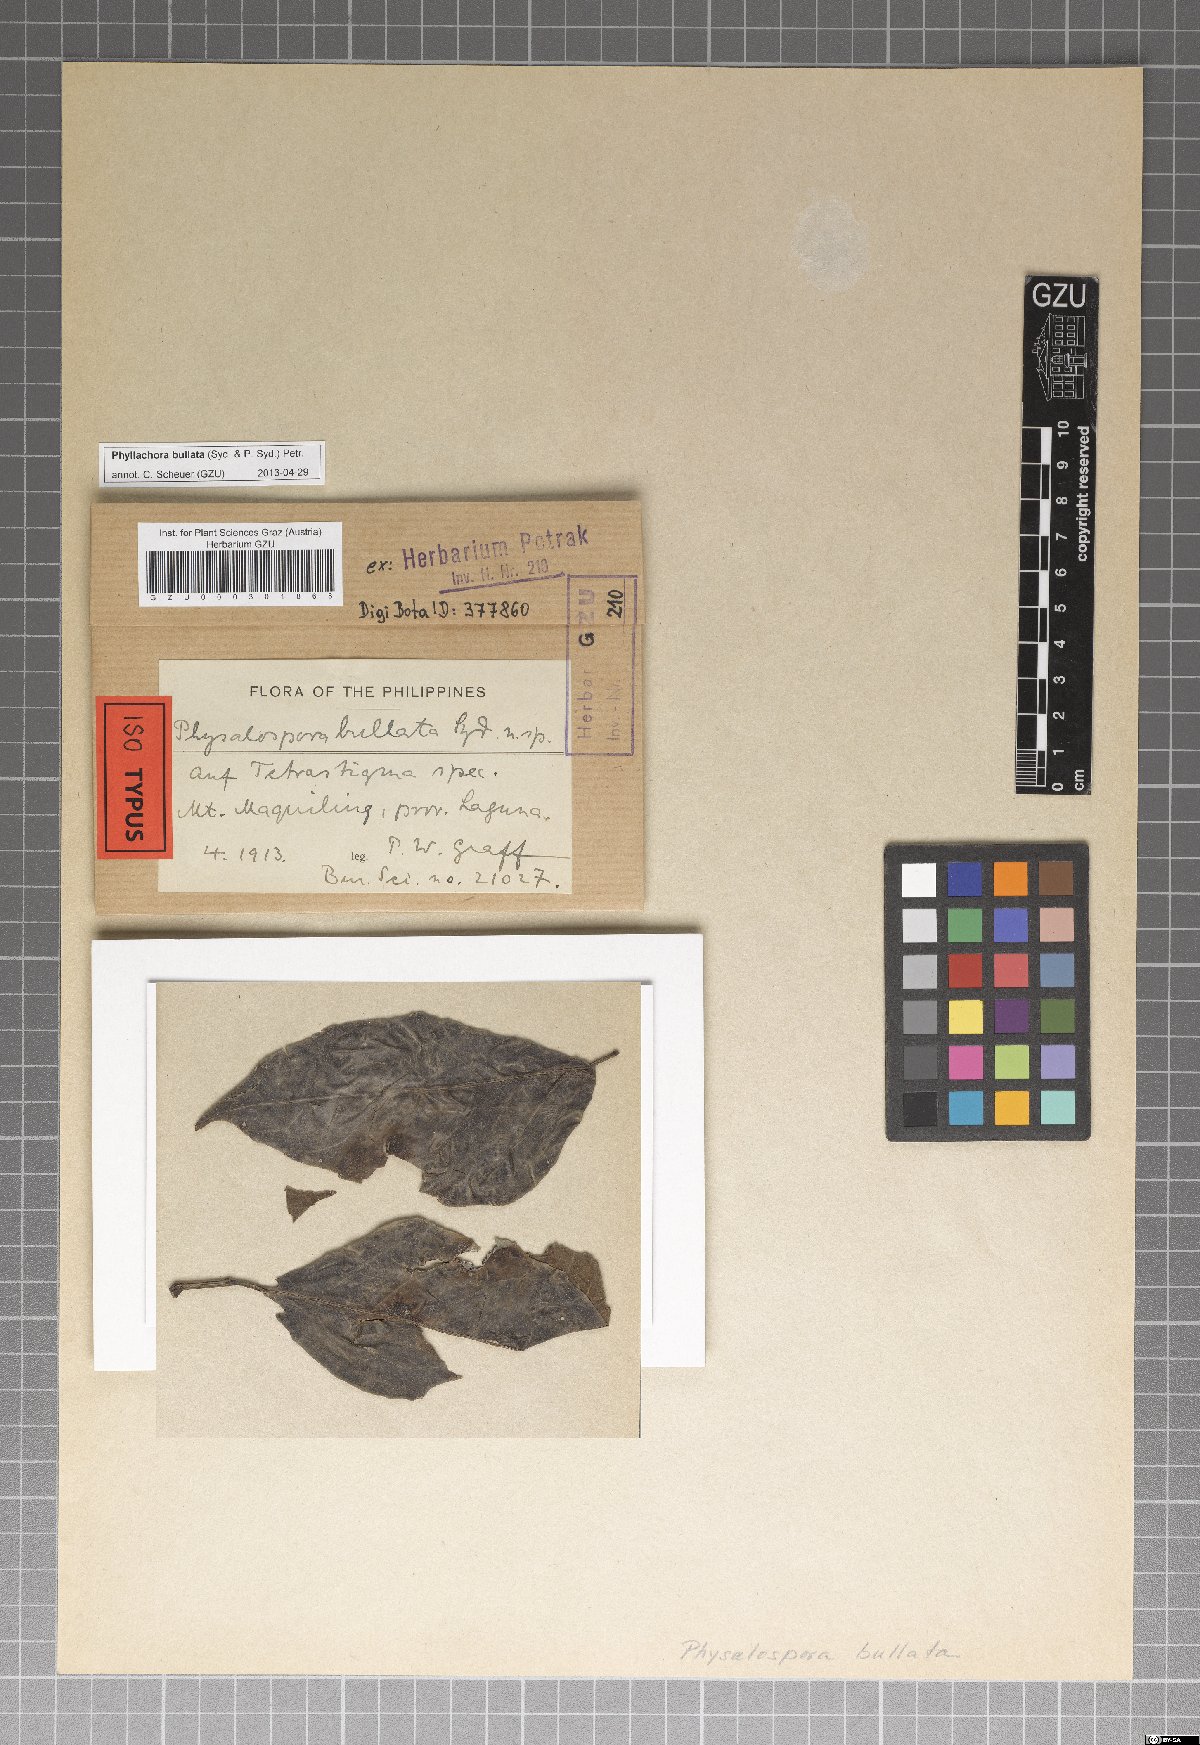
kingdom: Fungi
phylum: Ascomycota
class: Sordariomycetes
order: Phyllachorales
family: Phyllachoraceae
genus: Phyllachora
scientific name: Phyllachora carnea
